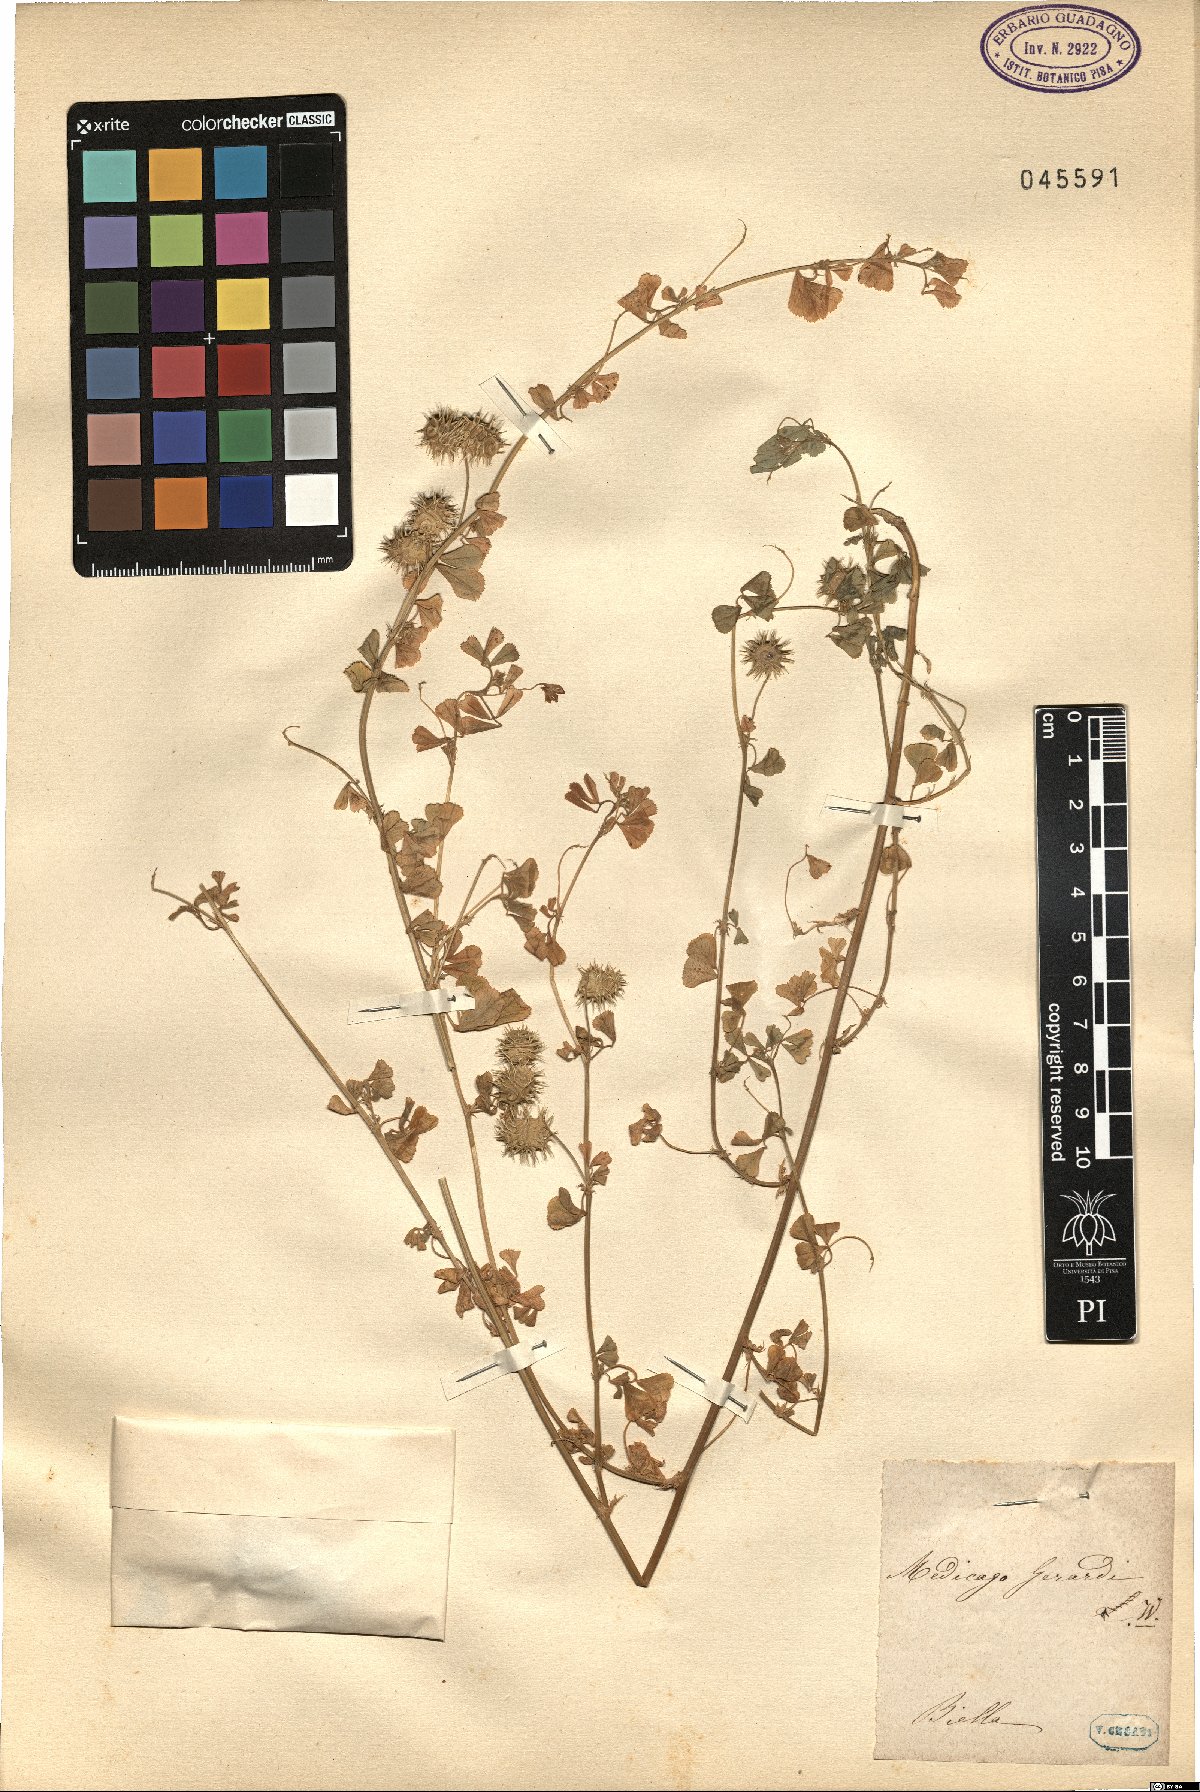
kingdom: Plantae
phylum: Tracheophyta
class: Magnoliopsida
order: Fabales
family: Fabaceae
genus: Medicago
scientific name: Medicago rigidula
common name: Tifton medic
